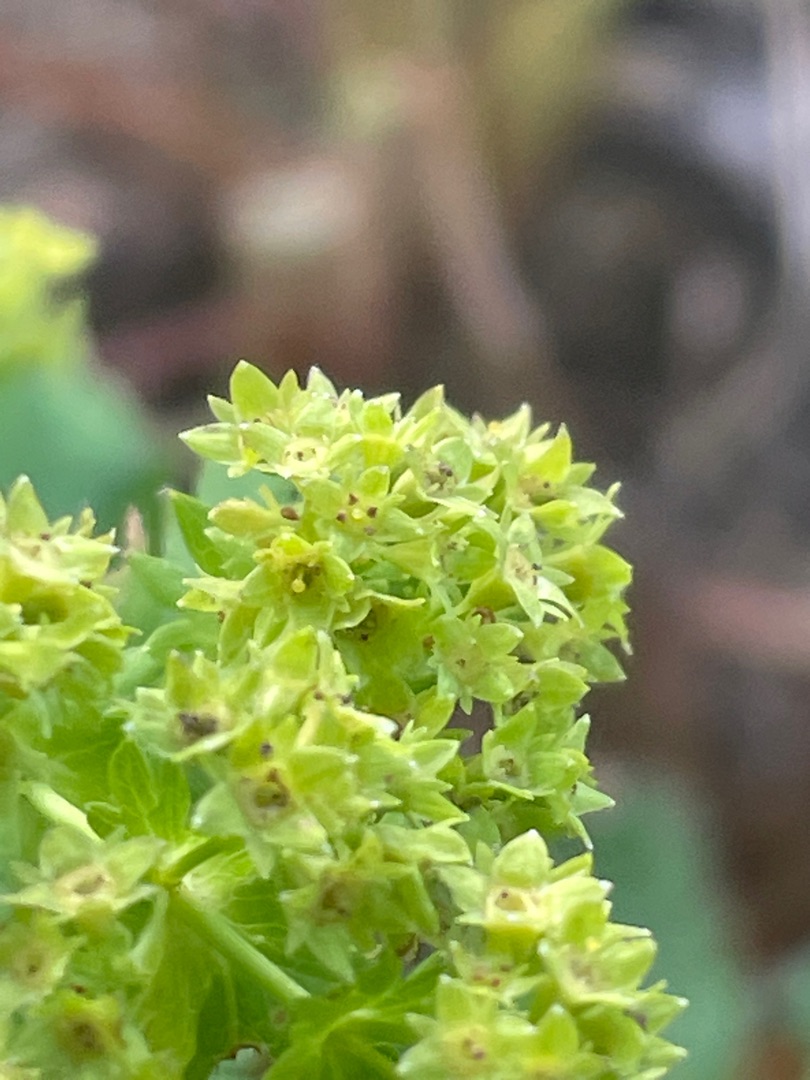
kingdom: Plantae
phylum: Tracheophyta
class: Magnoliopsida
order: Rosales
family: Rosaceae
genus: Alchemilla
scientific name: Alchemilla glabra
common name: Glat løvefod
